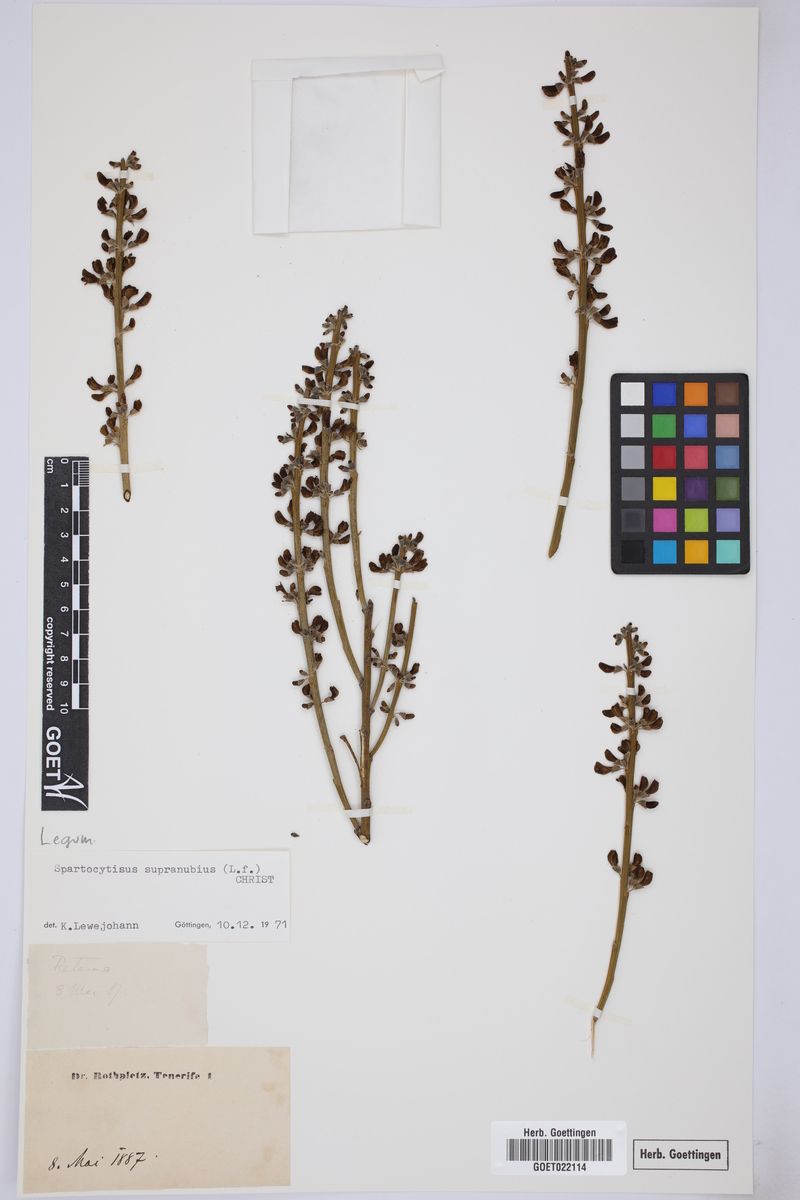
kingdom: Plantae
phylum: Tracheophyta
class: Magnoliopsida
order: Fabales
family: Fabaceae
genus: Cytisus
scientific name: Cytisus supranubius
